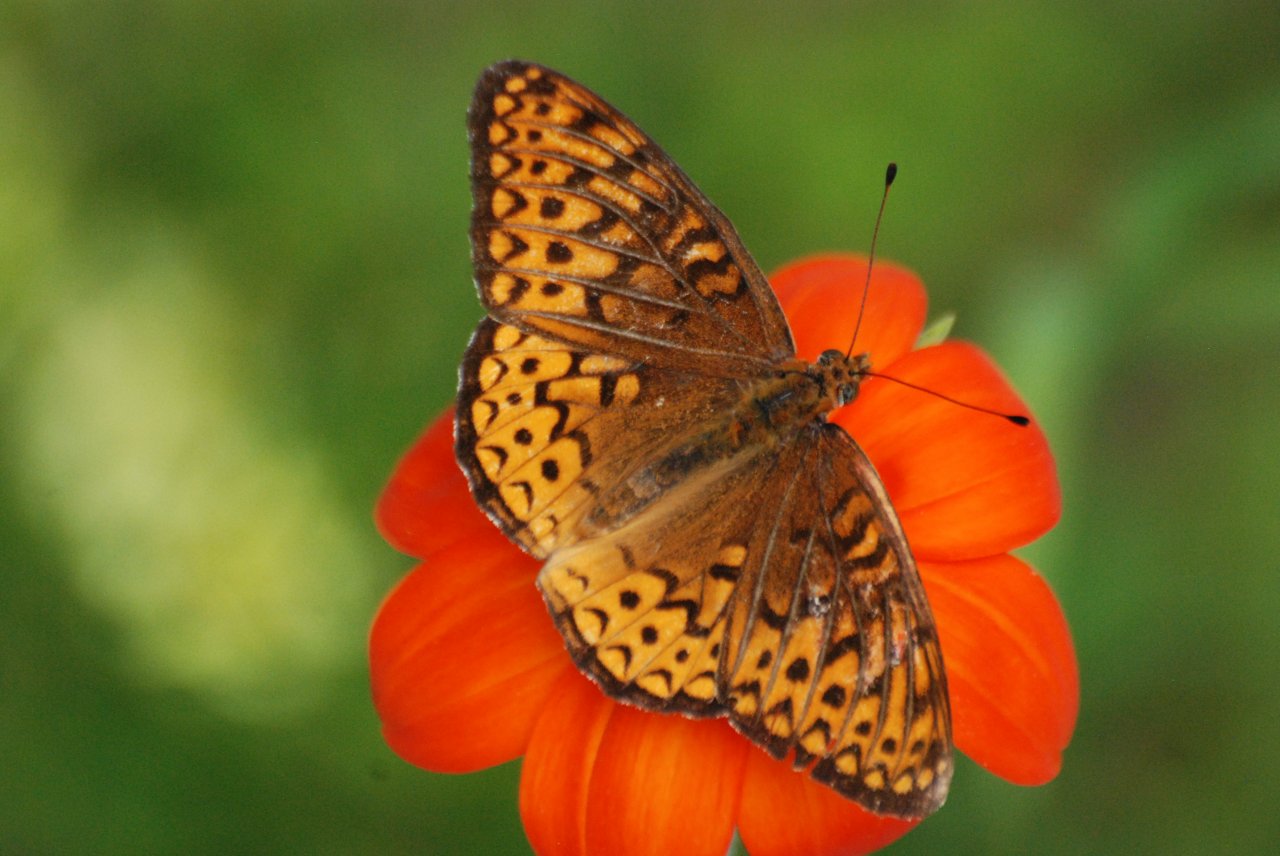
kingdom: Animalia
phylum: Arthropoda
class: Insecta
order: Lepidoptera
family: Nymphalidae
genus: Speyeria
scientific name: Speyeria atlantis
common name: Atlantis Fritillary
